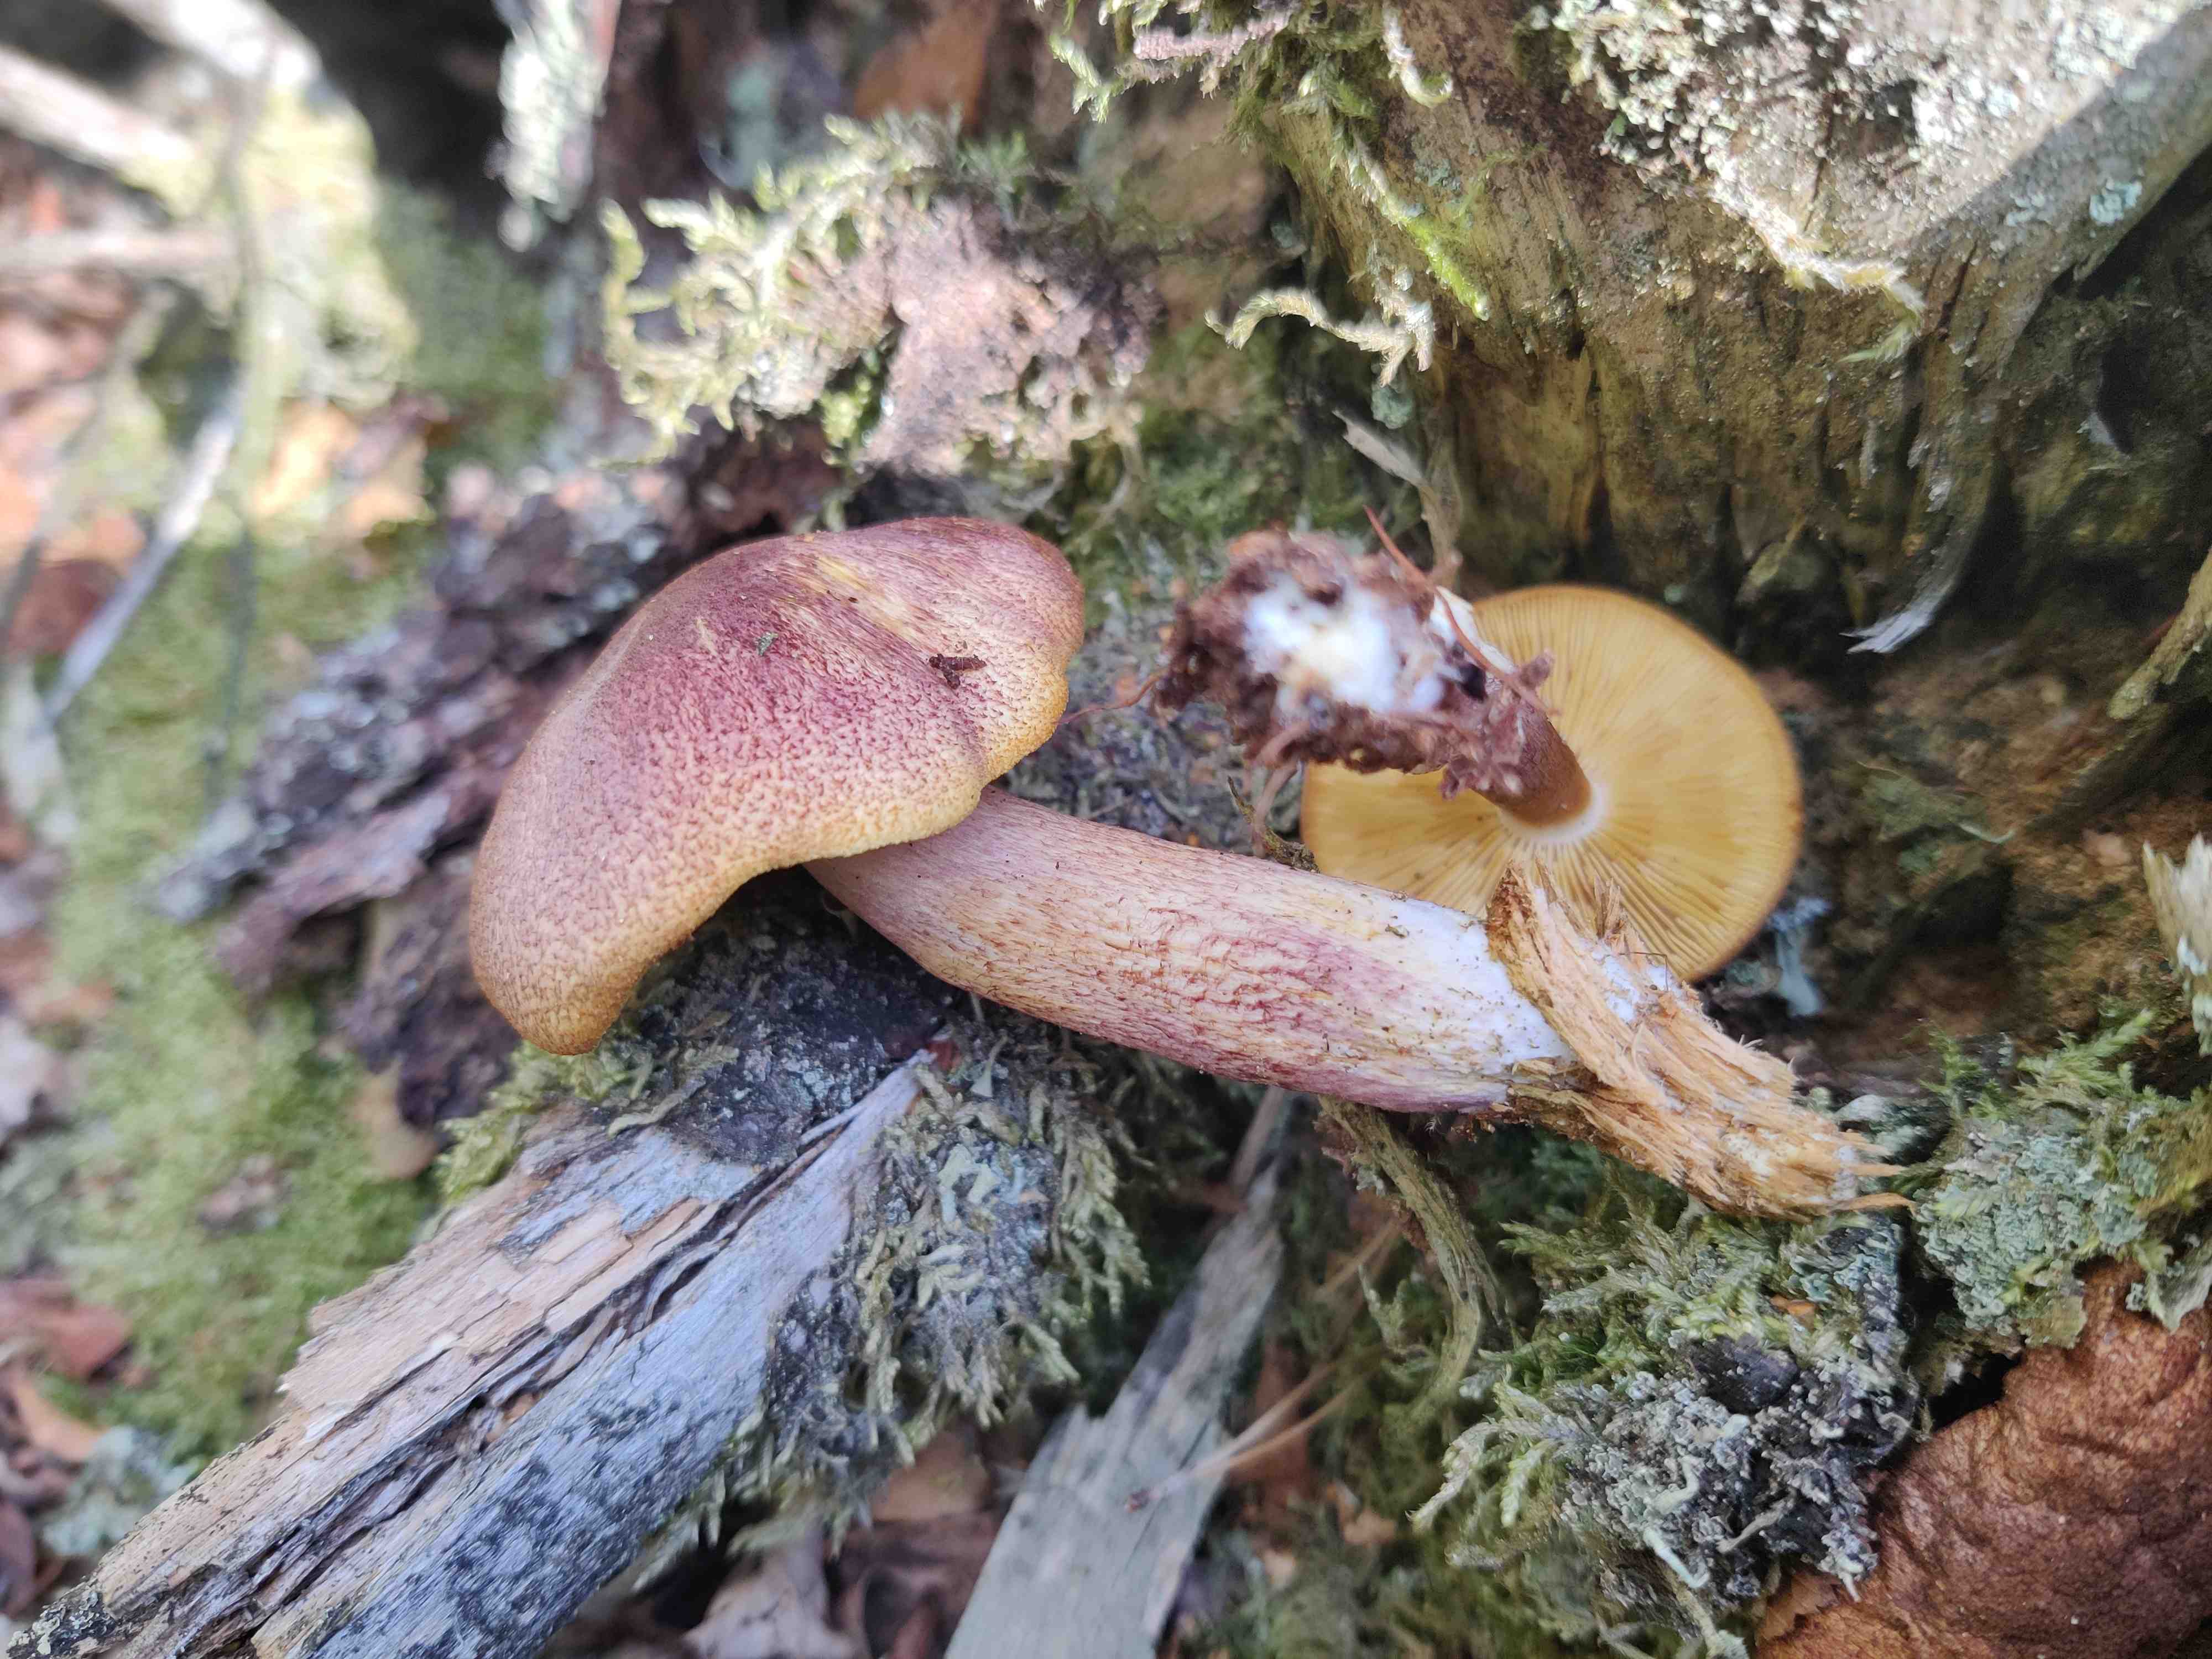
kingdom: Fungi
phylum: Basidiomycota
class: Agaricomycetes
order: Agaricales
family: Tricholomataceae
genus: Tricholomopsis
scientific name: Tricholomopsis rutilans
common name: purpur-væbnerhat
